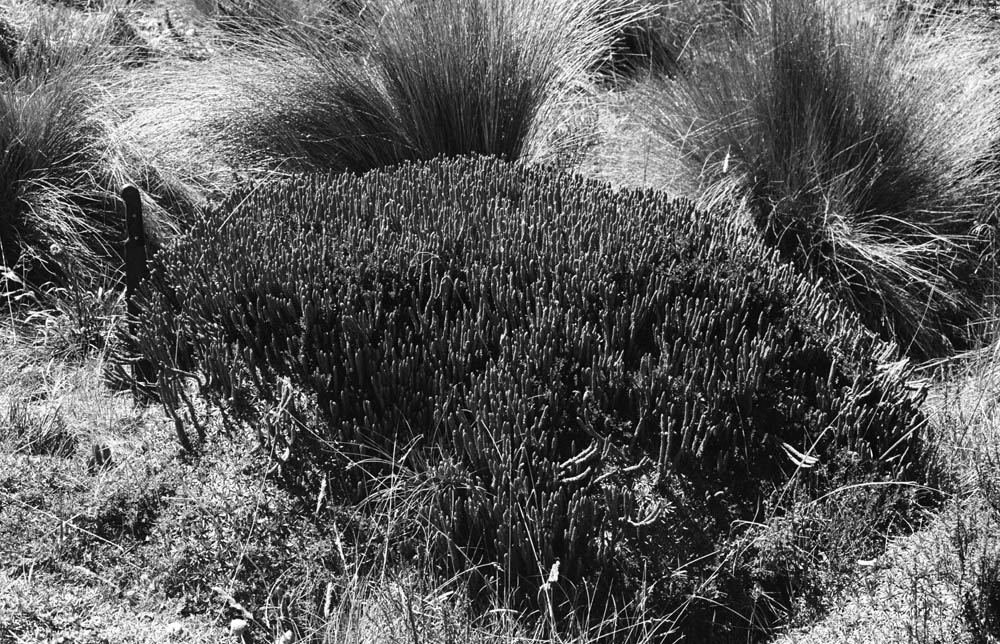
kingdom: Plantae
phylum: Tracheophyta
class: Lycopodiopsida
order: Lycopodiales
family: Lycopodiaceae
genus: Phlegmariurus
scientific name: Phlegmariurus hypogaeus
